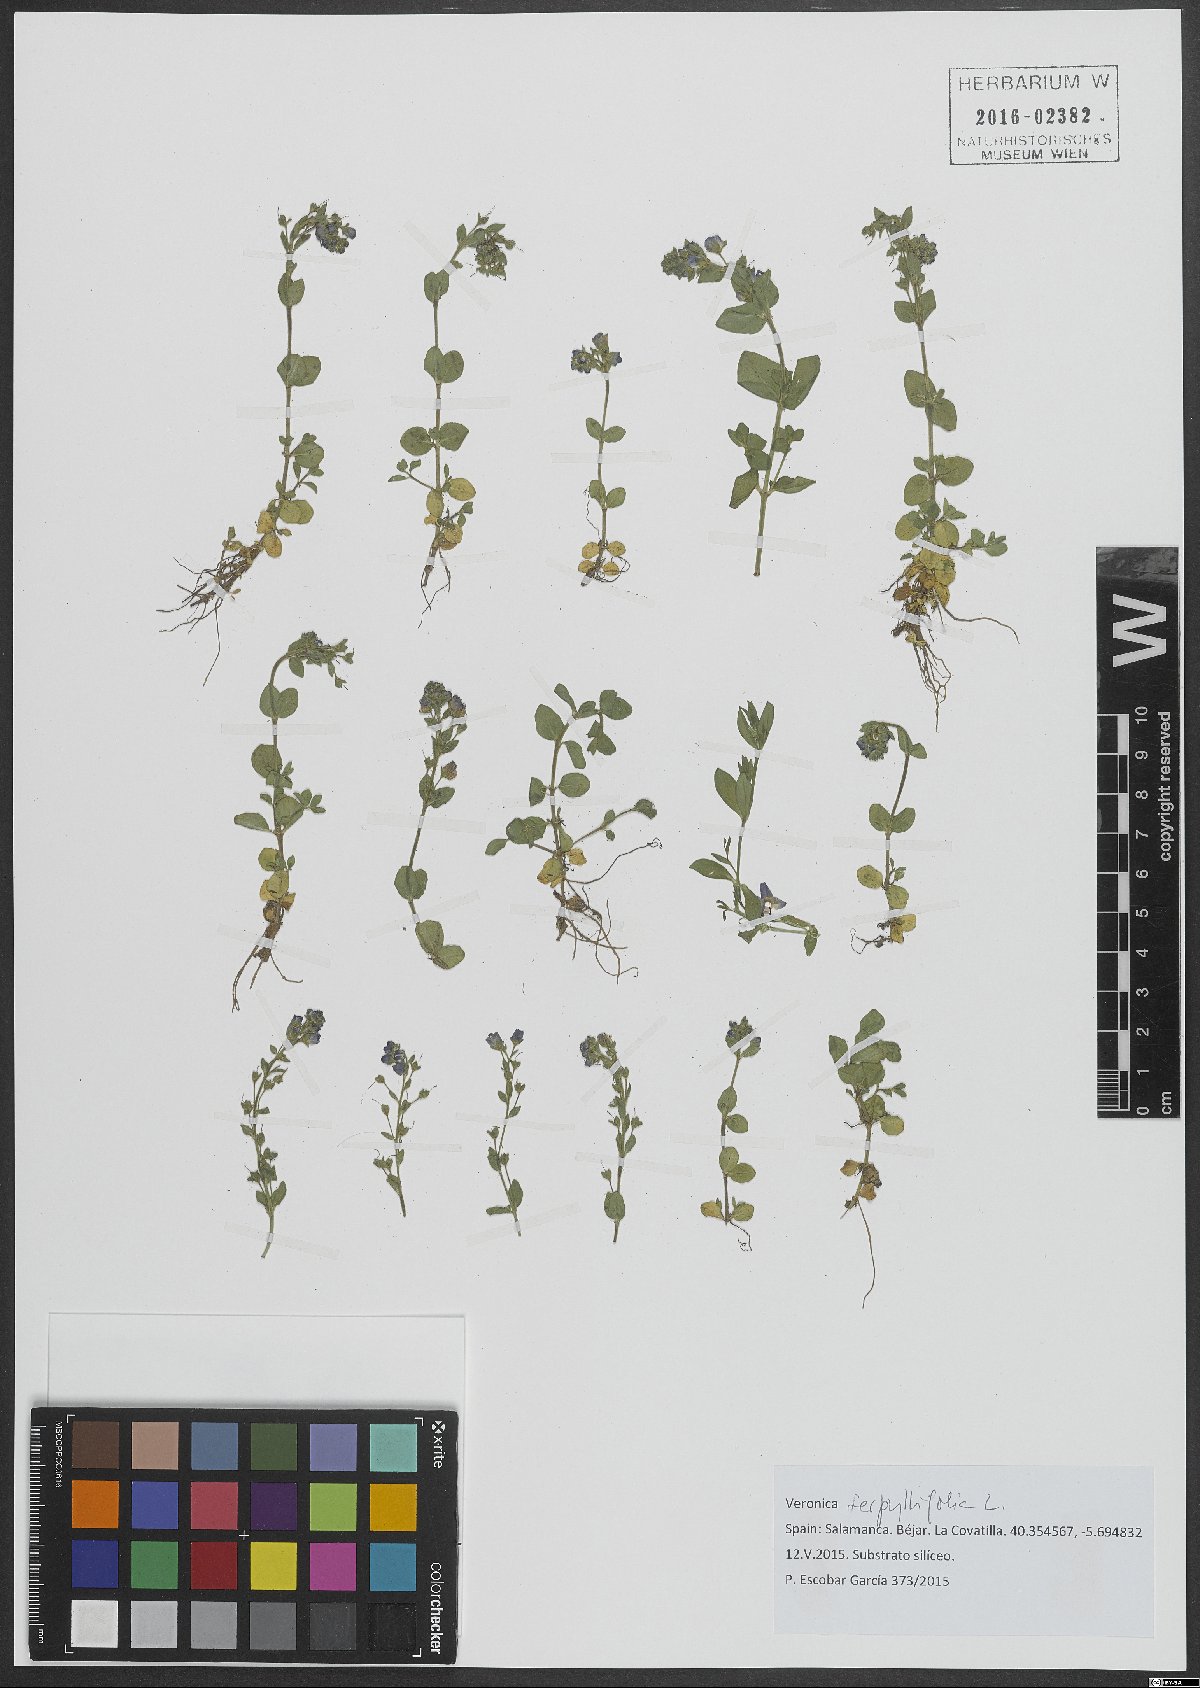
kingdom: Plantae
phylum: Tracheophyta
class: Magnoliopsida
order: Lamiales
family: Plantaginaceae
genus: Veronica
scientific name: Veronica serpyllifolia
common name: Thyme-leaved speedwell
